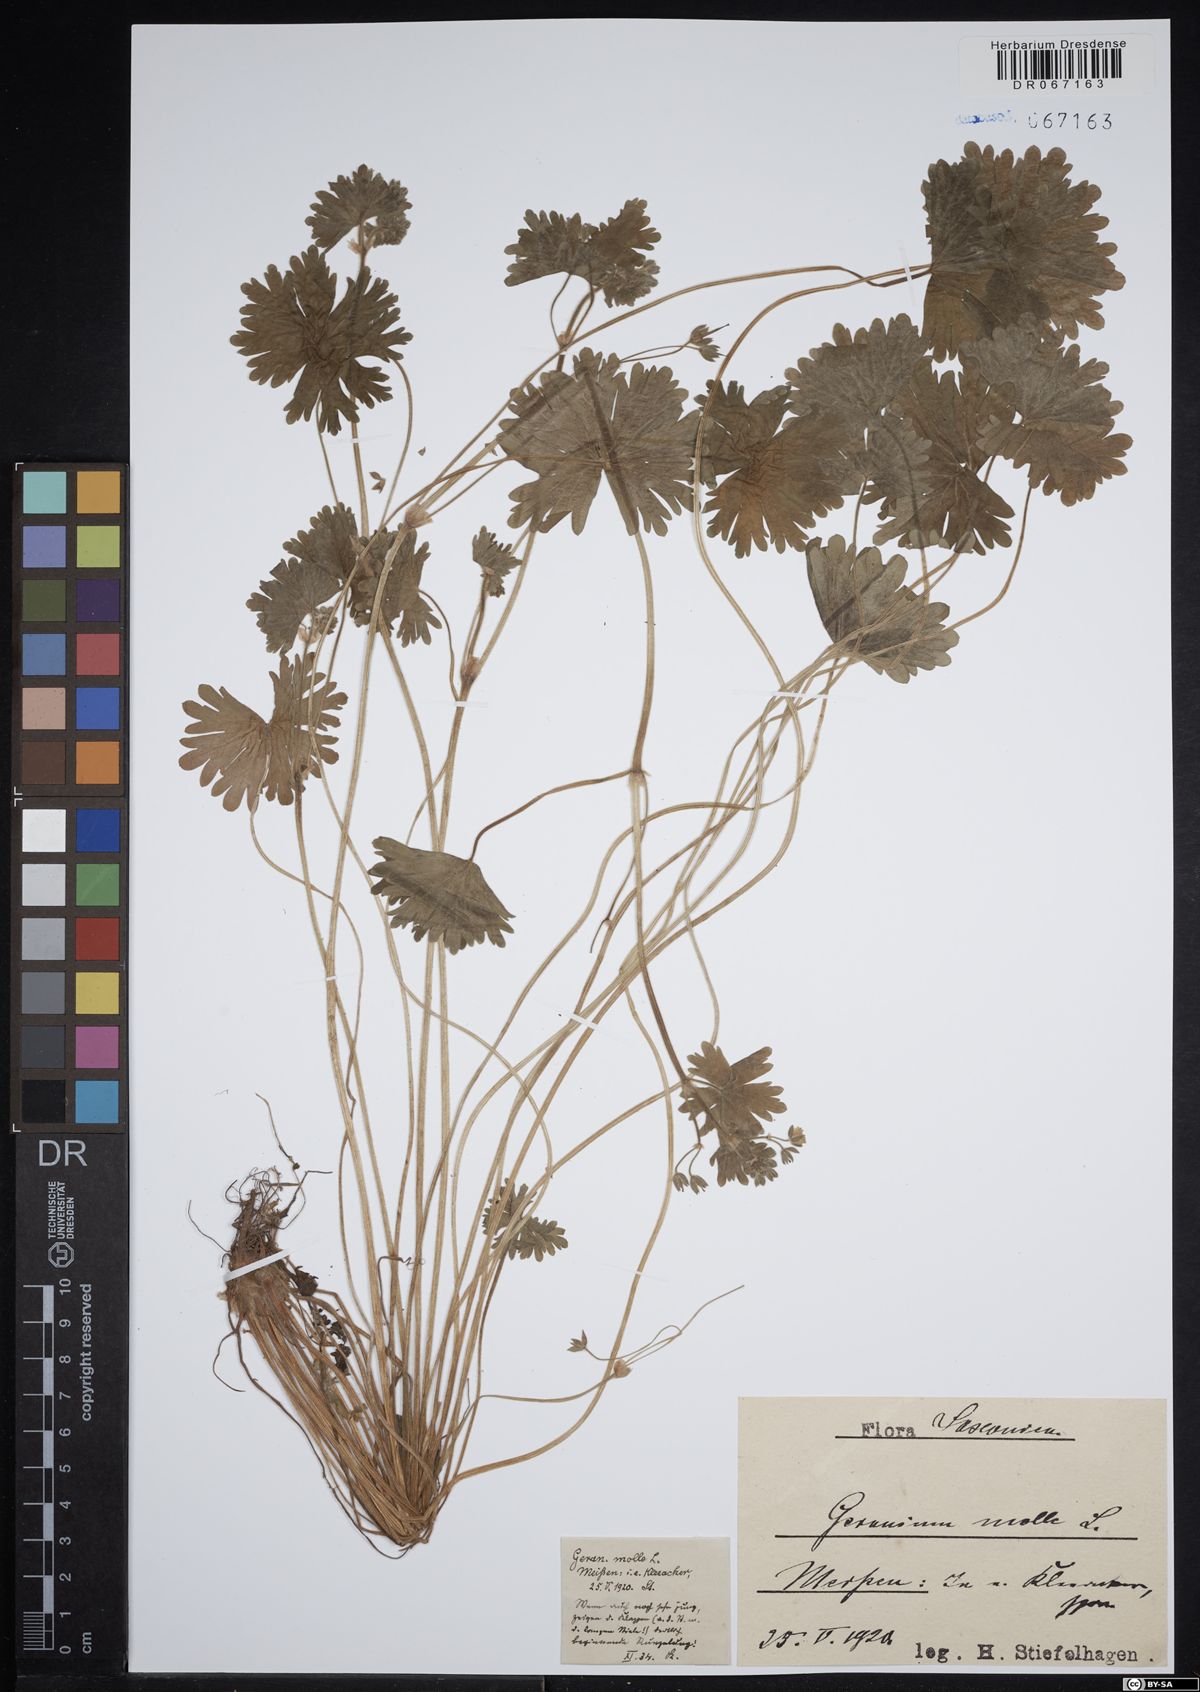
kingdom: Plantae
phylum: Tracheophyta
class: Magnoliopsida
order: Geraniales
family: Geraniaceae
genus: Geranium
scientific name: Geranium molle
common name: Dove's-foot crane's-bill
